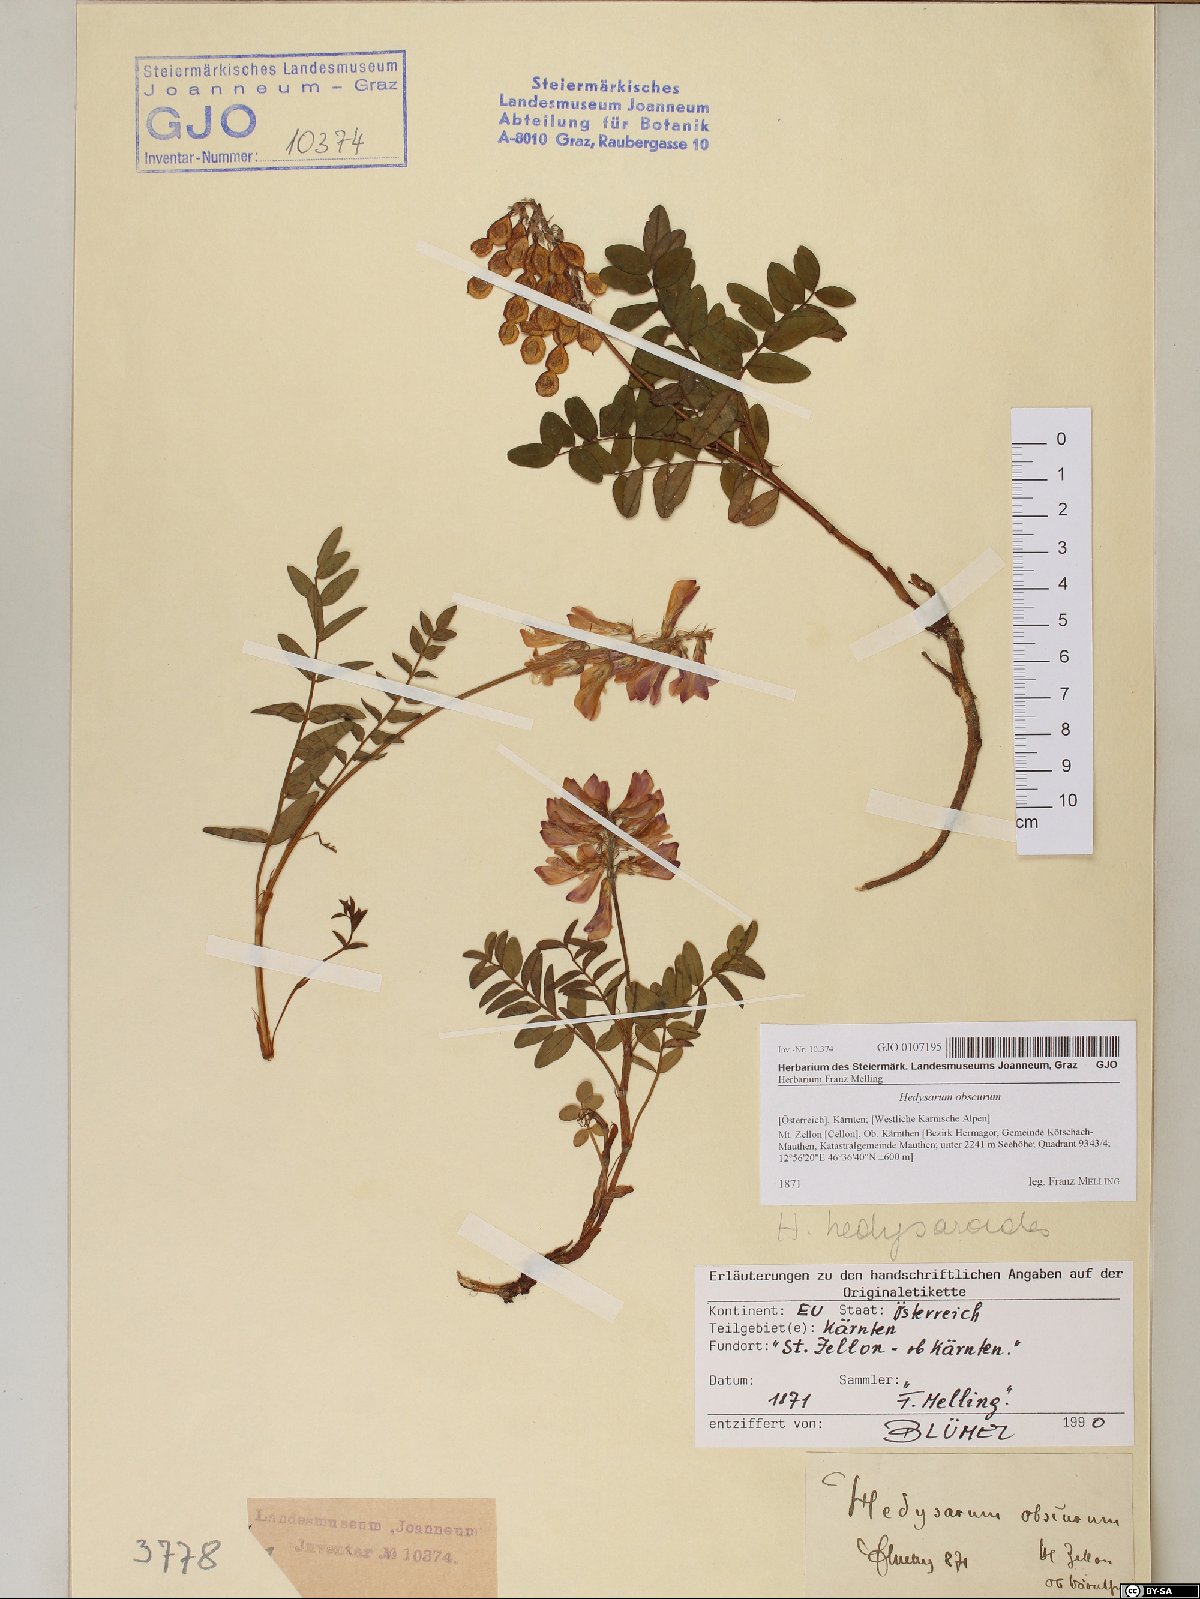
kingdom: Plantae
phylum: Tracheophyta
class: Magnoliopsida
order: Fabales
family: Fabaceae
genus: Hedysarum
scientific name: Hedysarum hedysaroides
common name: Alpine french-honeysuckle
